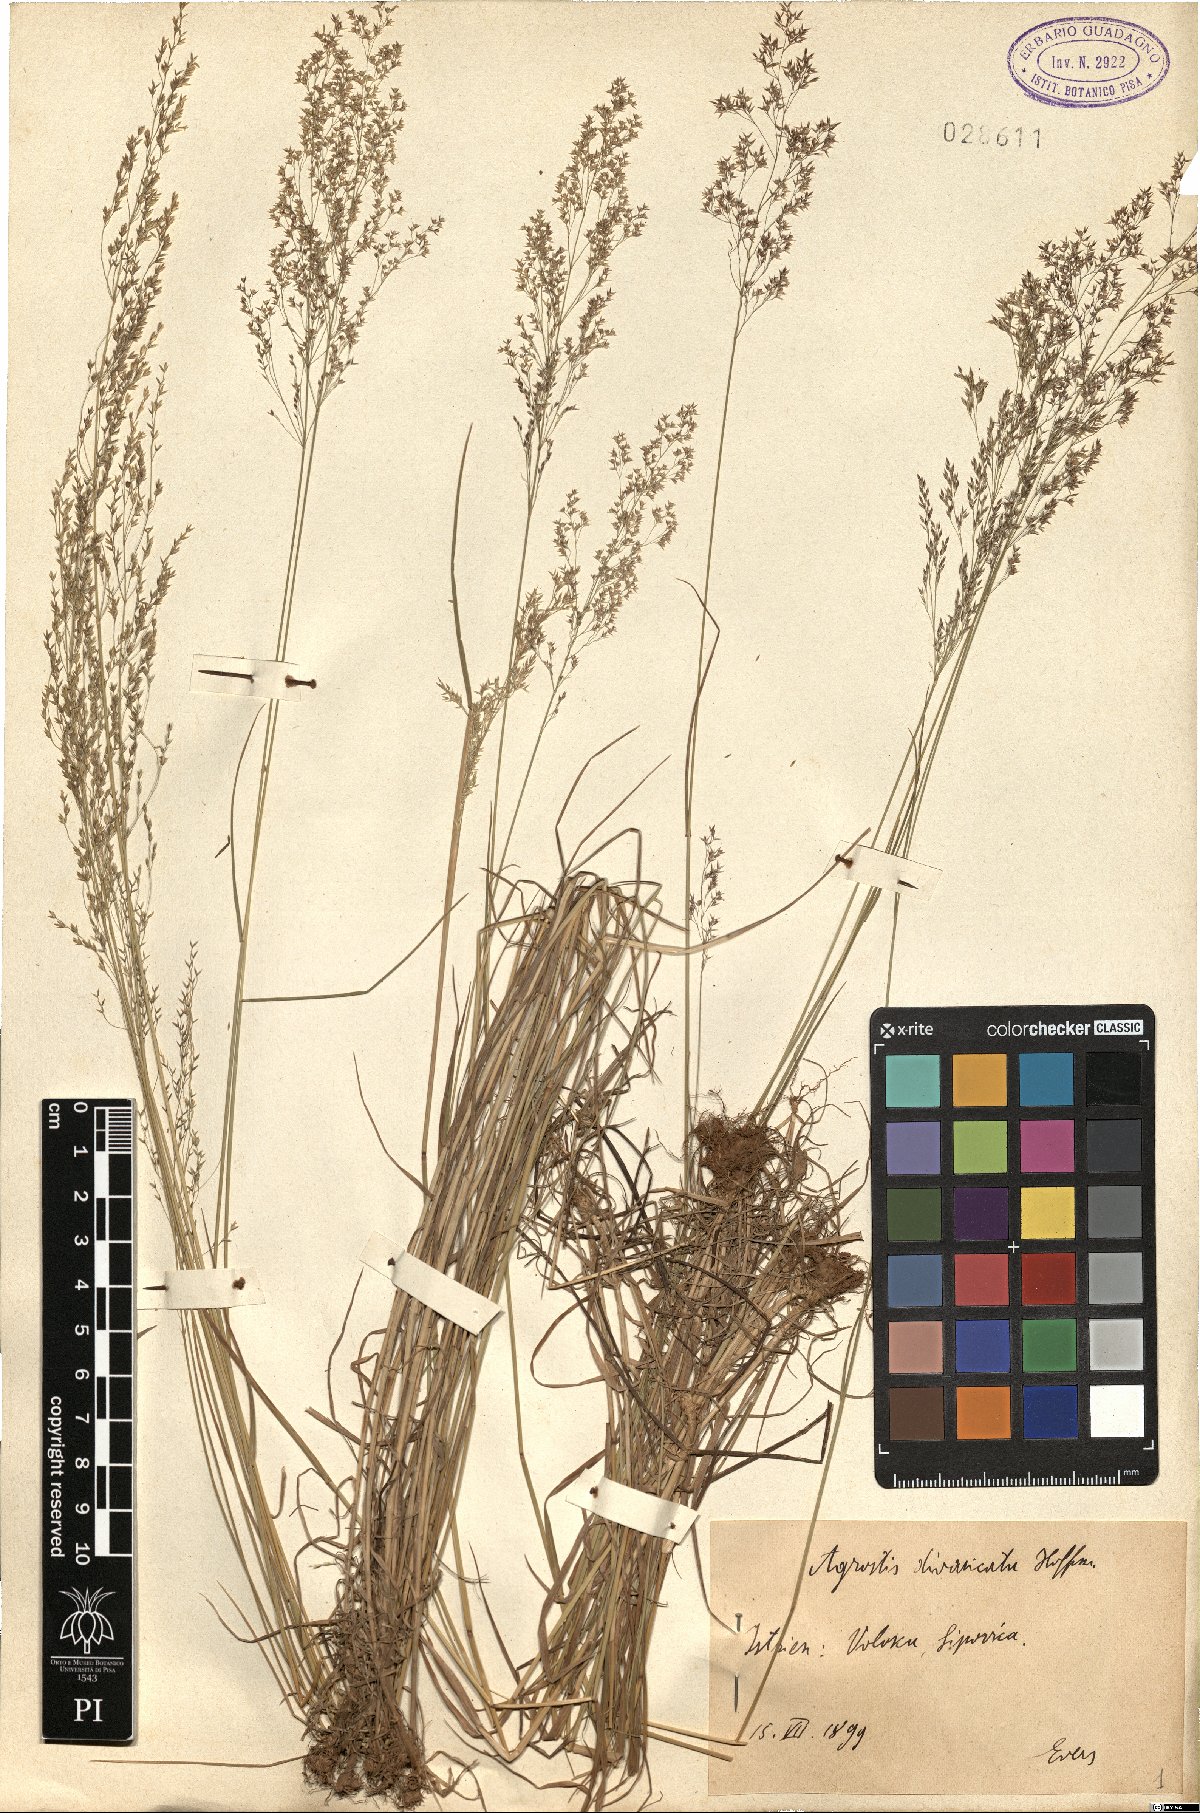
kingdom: Plantae
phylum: Tracheophyta
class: Liliopsida
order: Poales
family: Poaceae
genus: Agrostis
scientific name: Agrostis capillaris
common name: Colonial bentgrass
